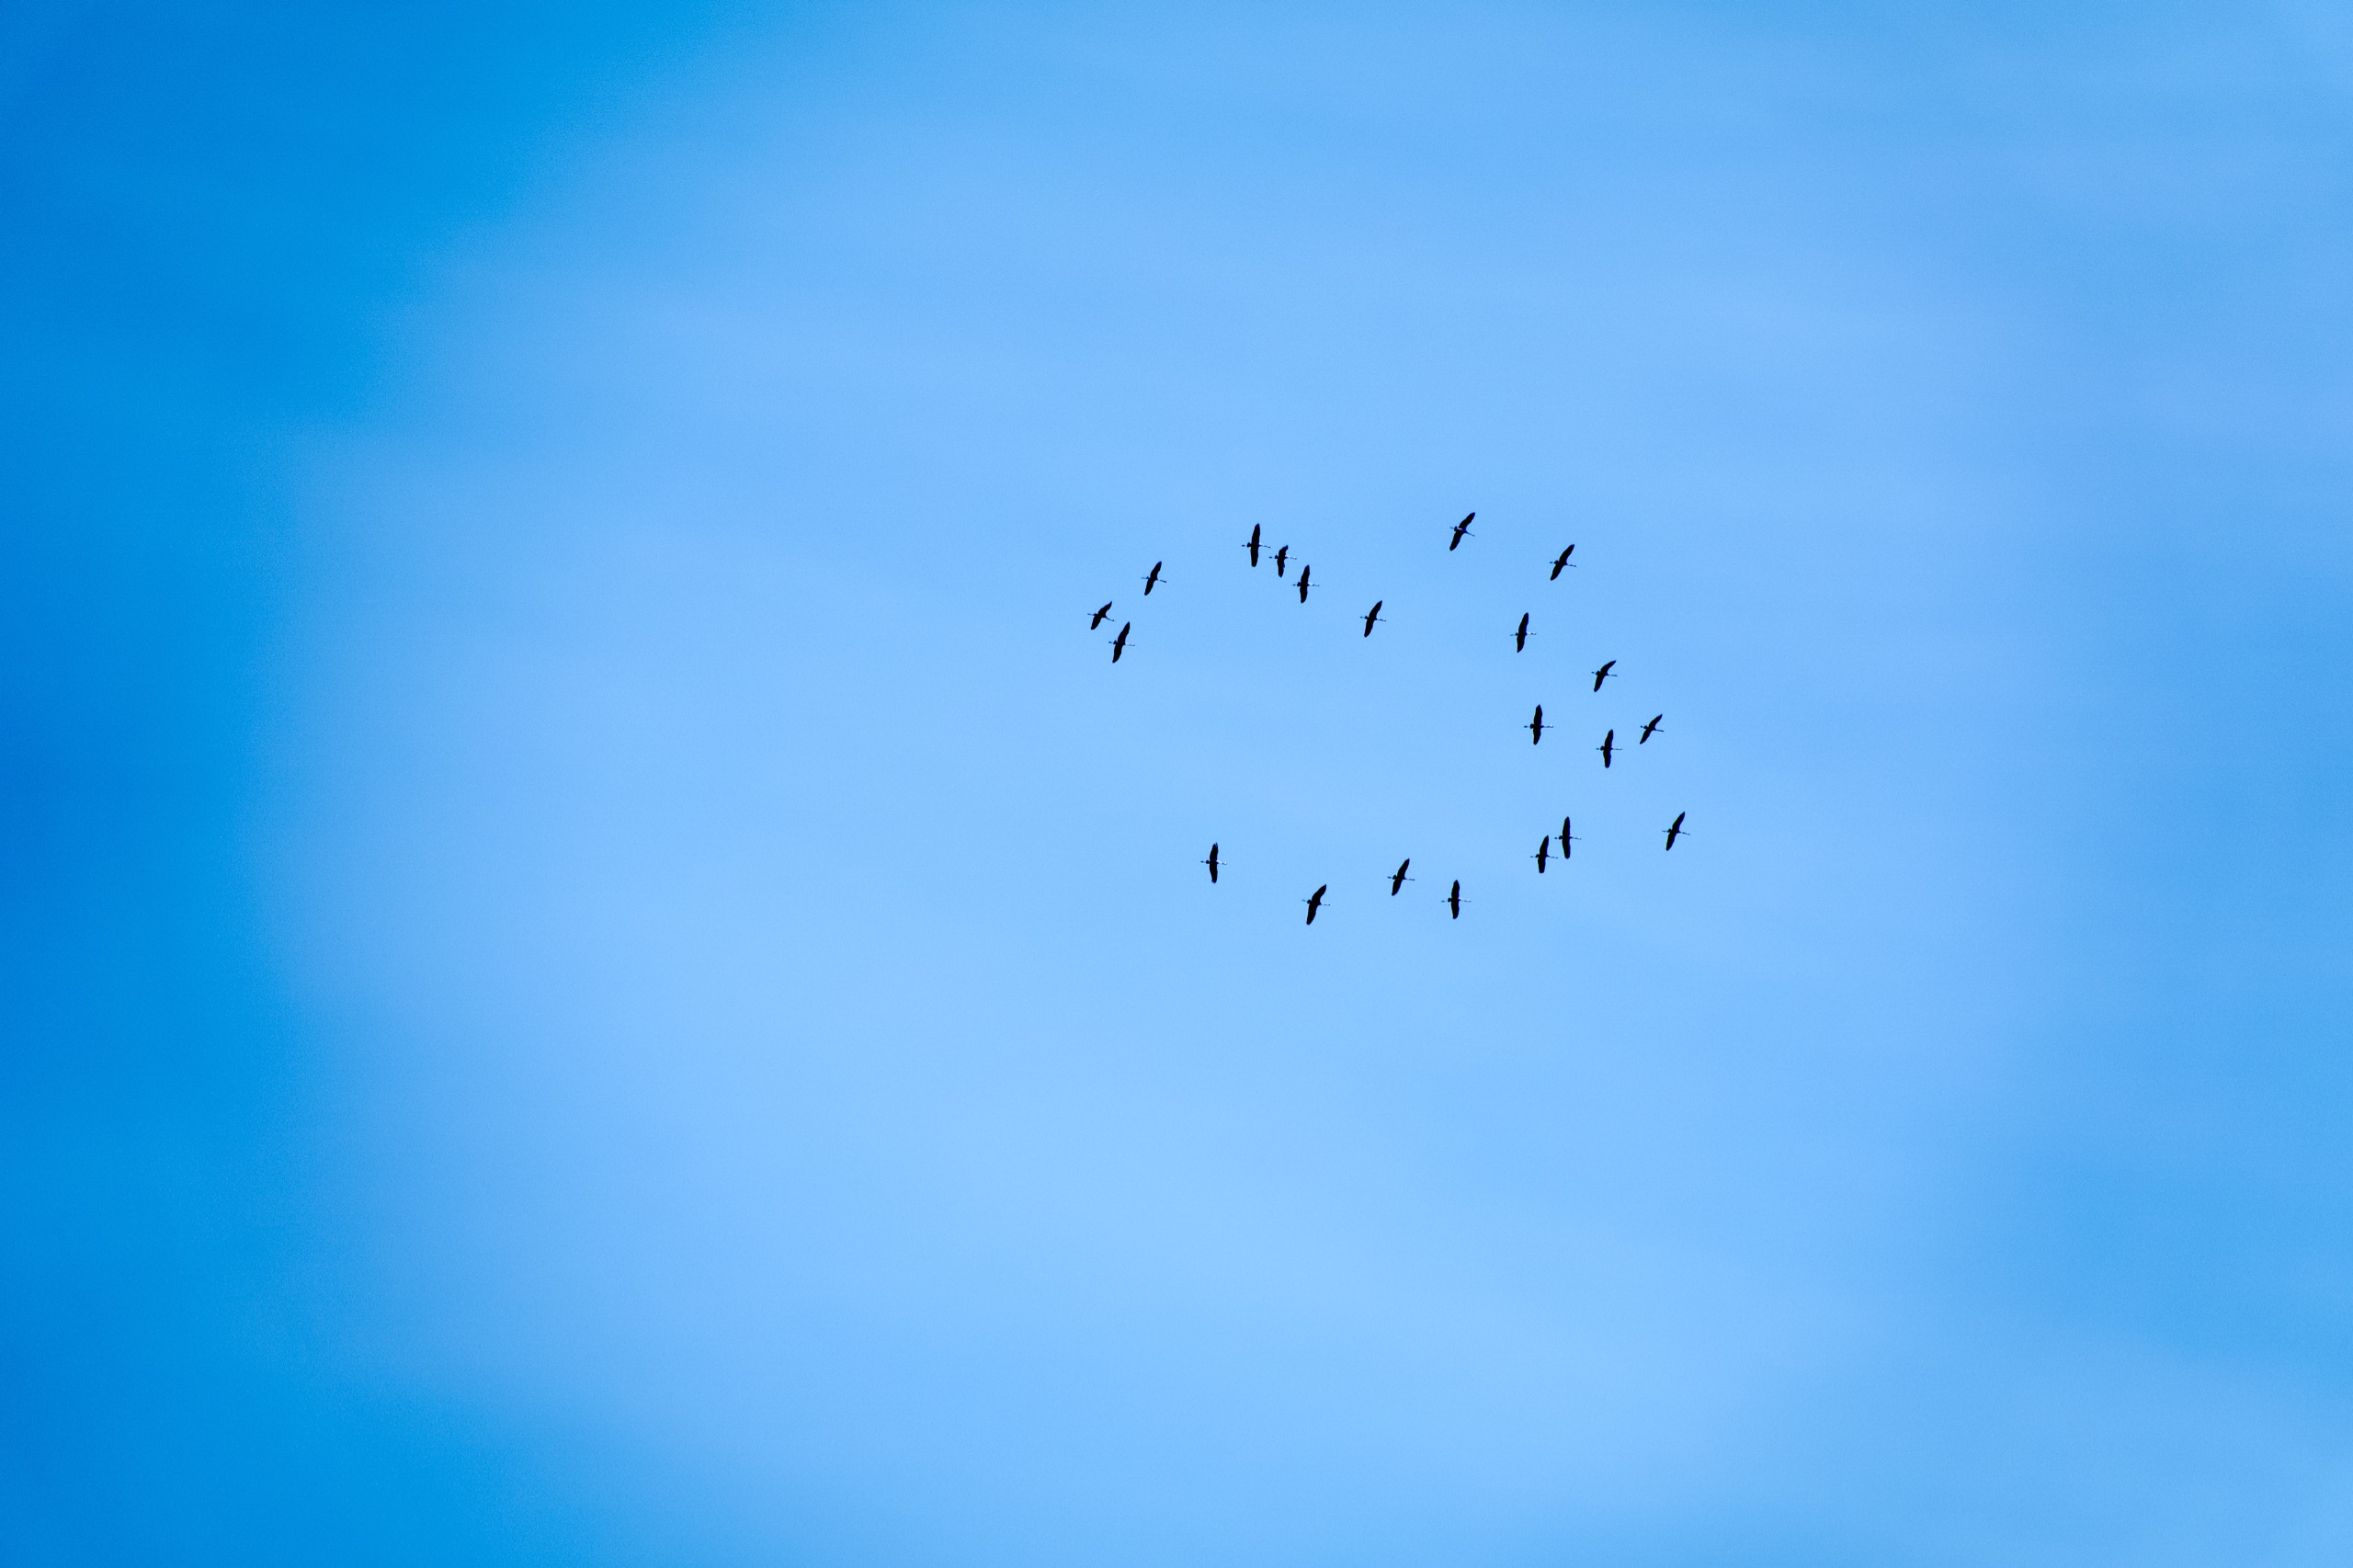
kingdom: Animalia
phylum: Chordata
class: Aves
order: Gruiformes
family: Gruidae
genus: Grus
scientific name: Grus grus
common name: Trane
